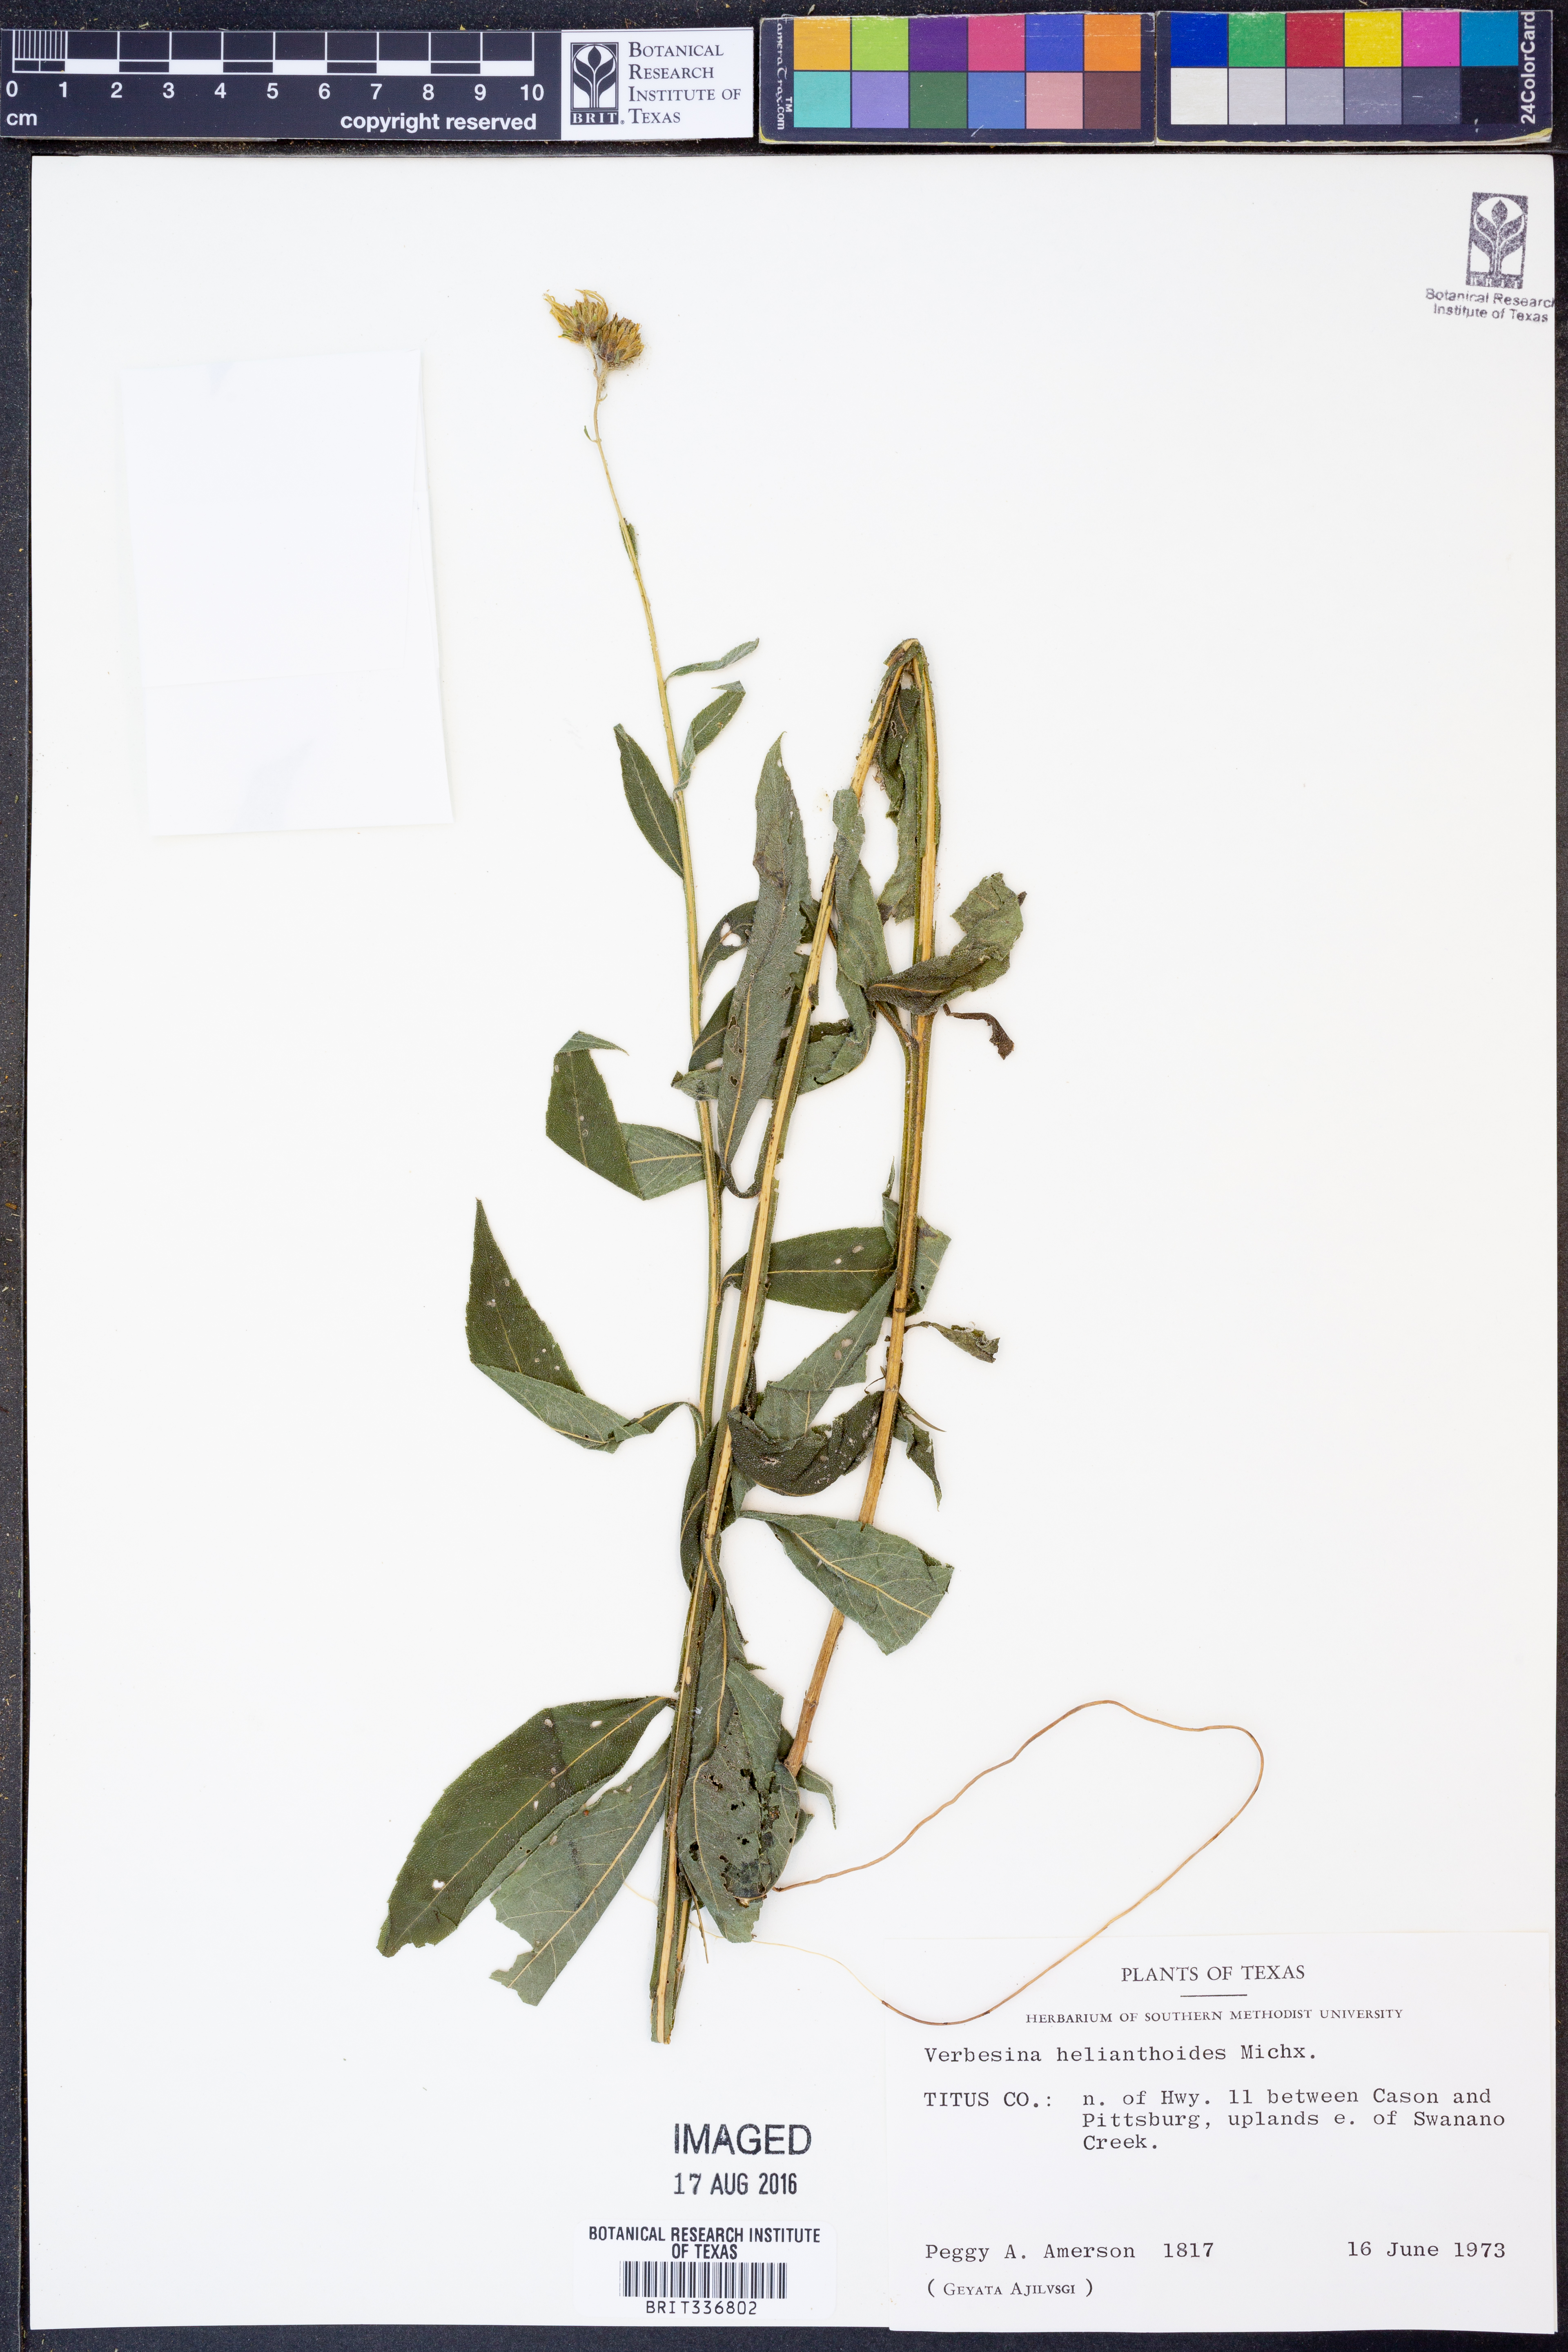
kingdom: Plantae
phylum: Tracheophyta
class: Magnoliopsida
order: Asterales
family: Asteraceae
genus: Verbesina
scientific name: Verbesina helianthoides
